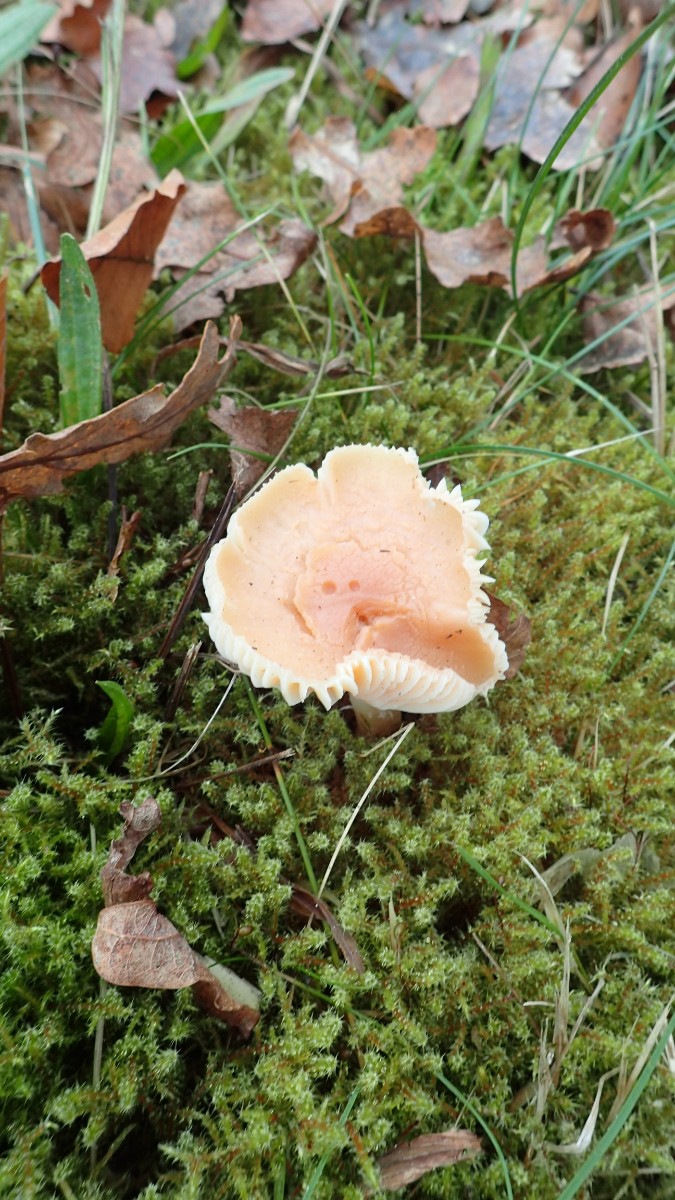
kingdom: Fungi
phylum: Basidiomycota
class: Agaricomycetes
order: Agaricales
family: Hygrophoraceae
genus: Cuphophyllus
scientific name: Cuphophyllus pratensis
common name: eng-vokshat
